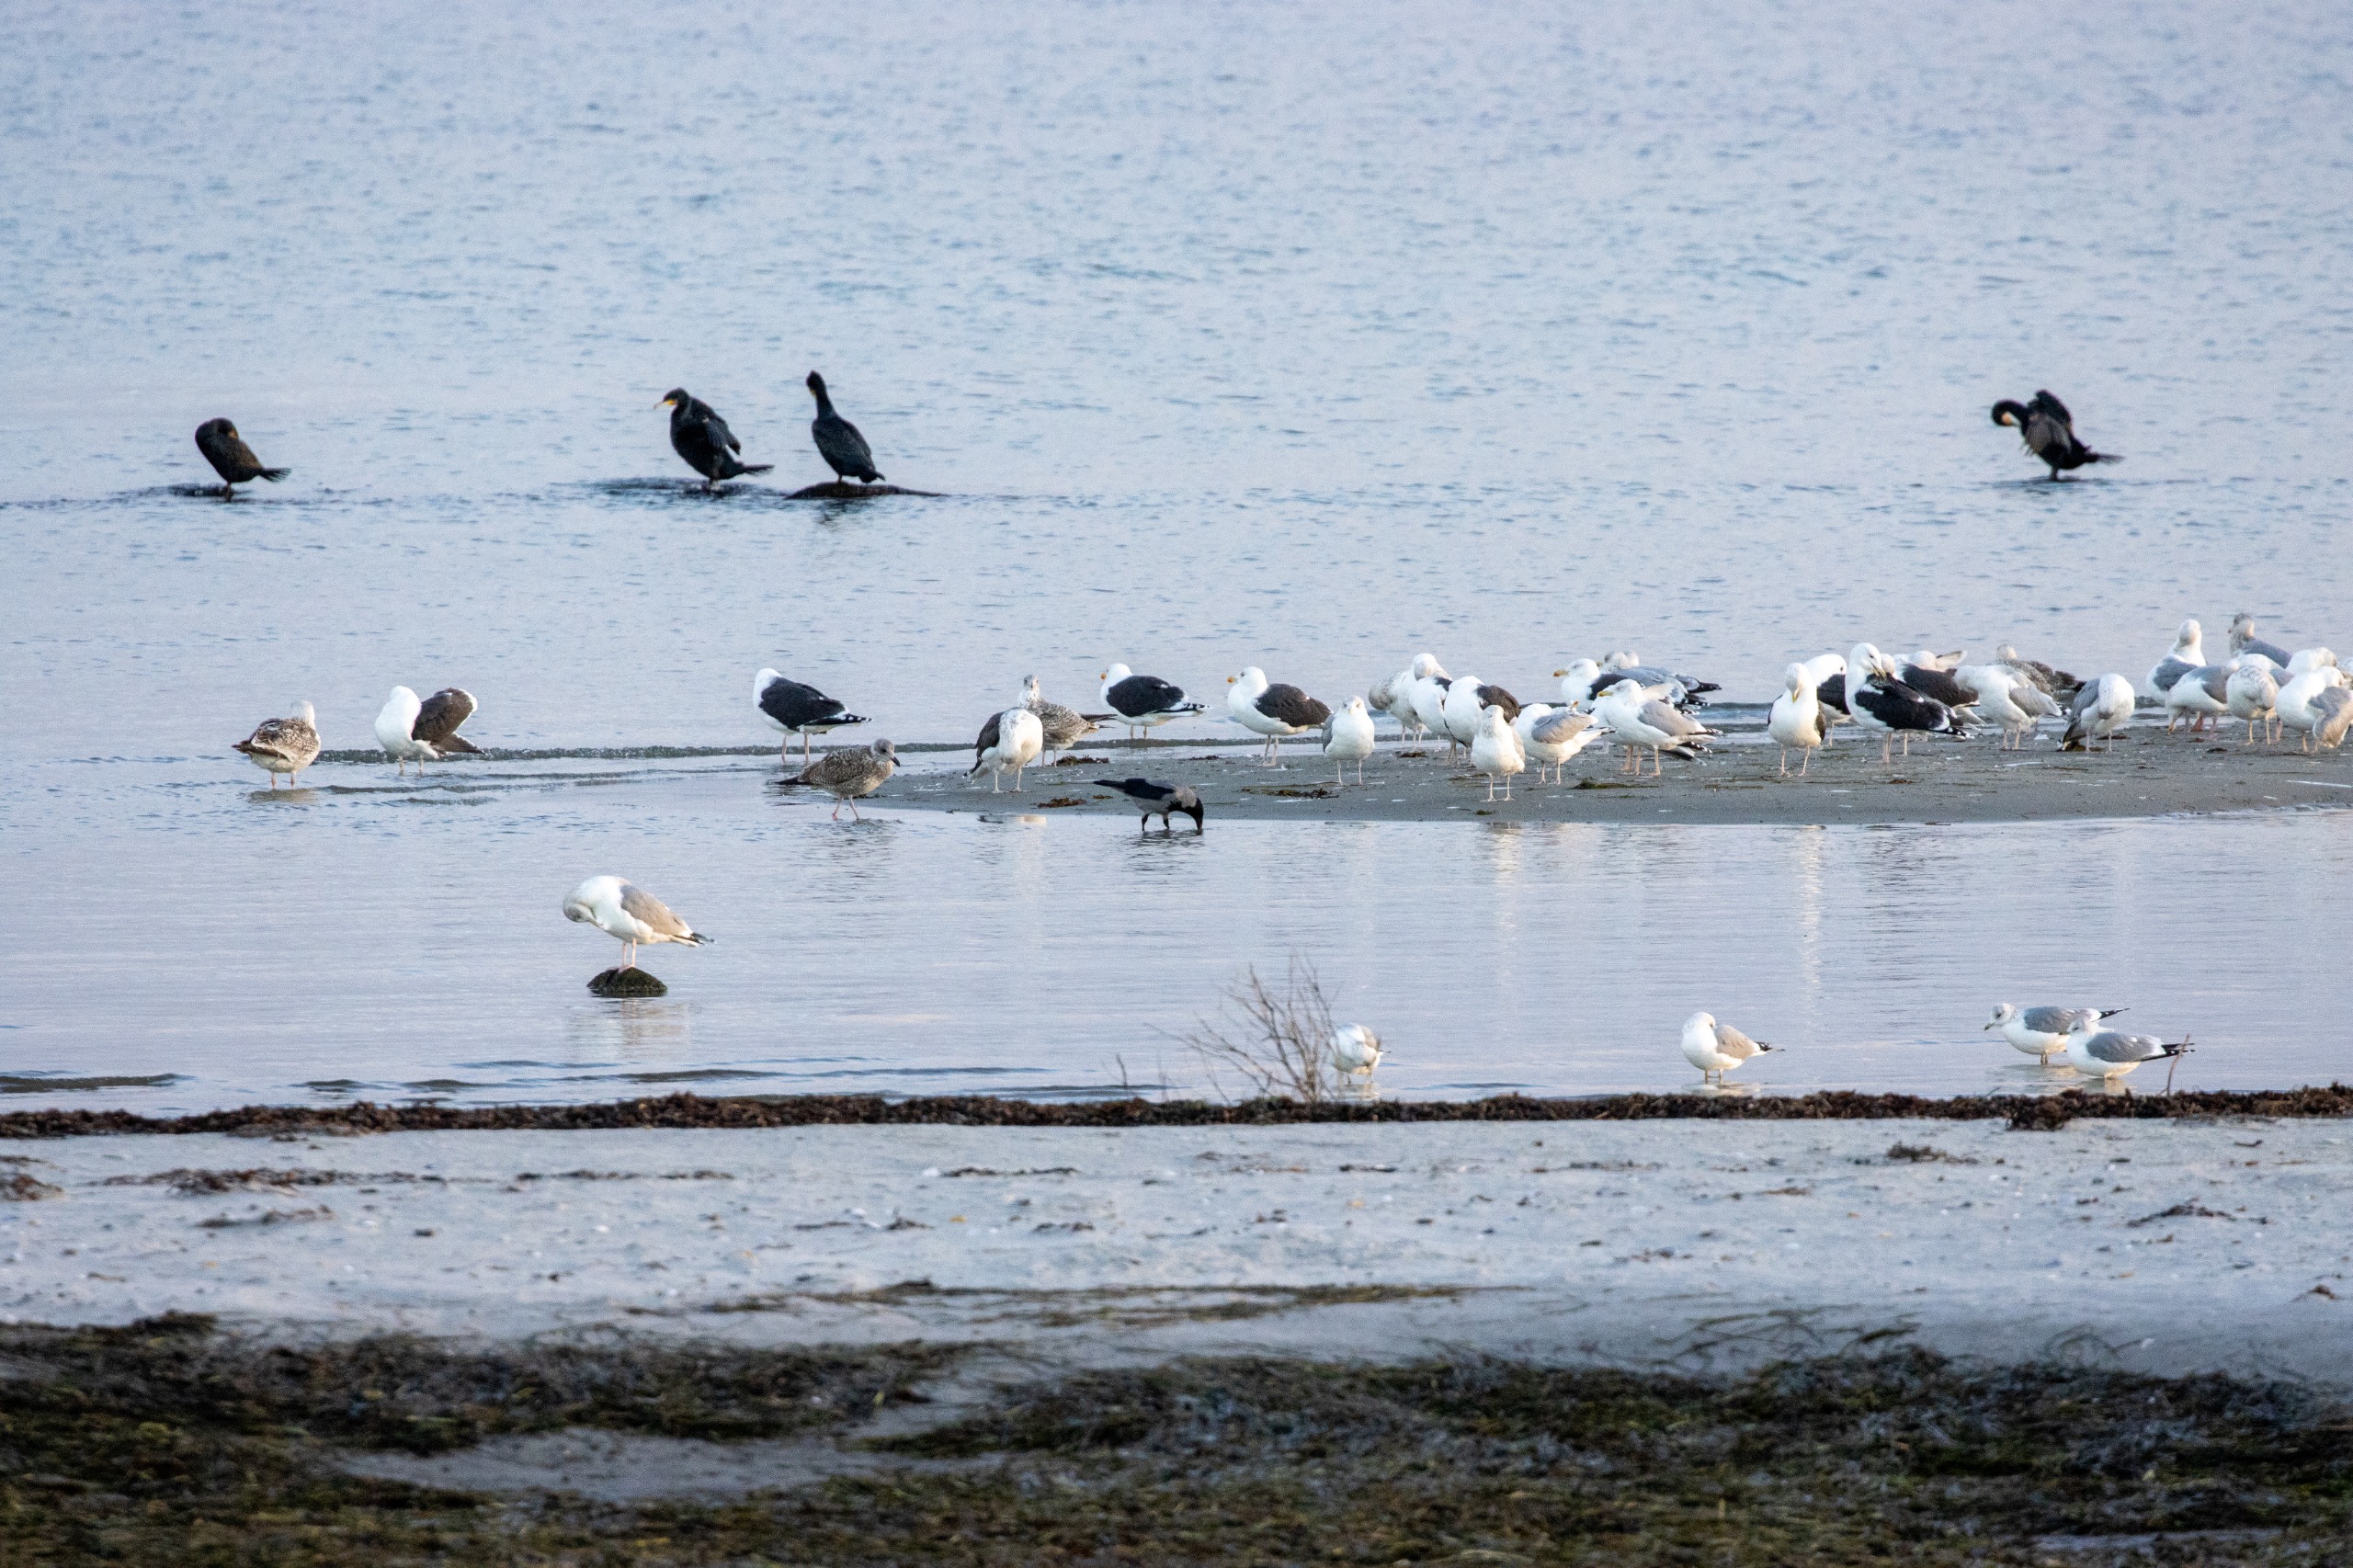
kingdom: Animalia
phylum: Chordata
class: Aves
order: Charadriiformes
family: Laridae
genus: Larus
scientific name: Larus argentatus
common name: Sølvmåge
